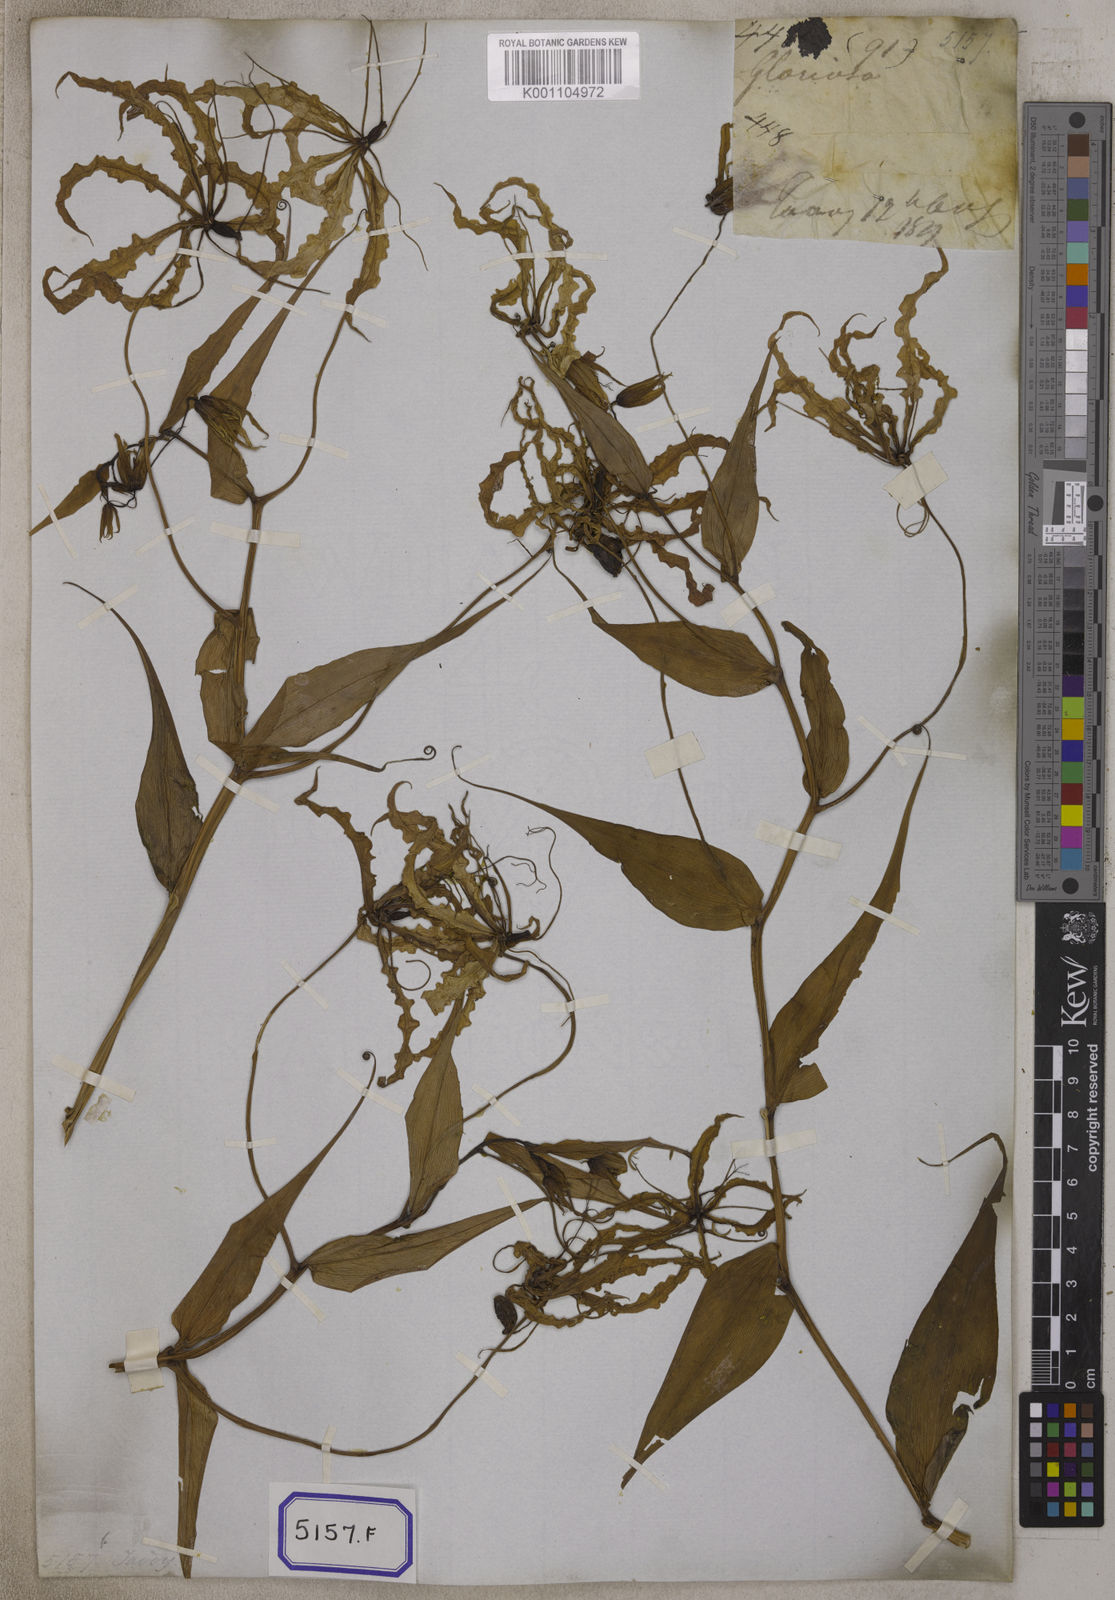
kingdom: Plantae
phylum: Tracheophyta
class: Liliopsida
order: Liliales
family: Colchicaceae
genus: Gloriosa
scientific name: Gloriosa superba
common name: Flame lily
